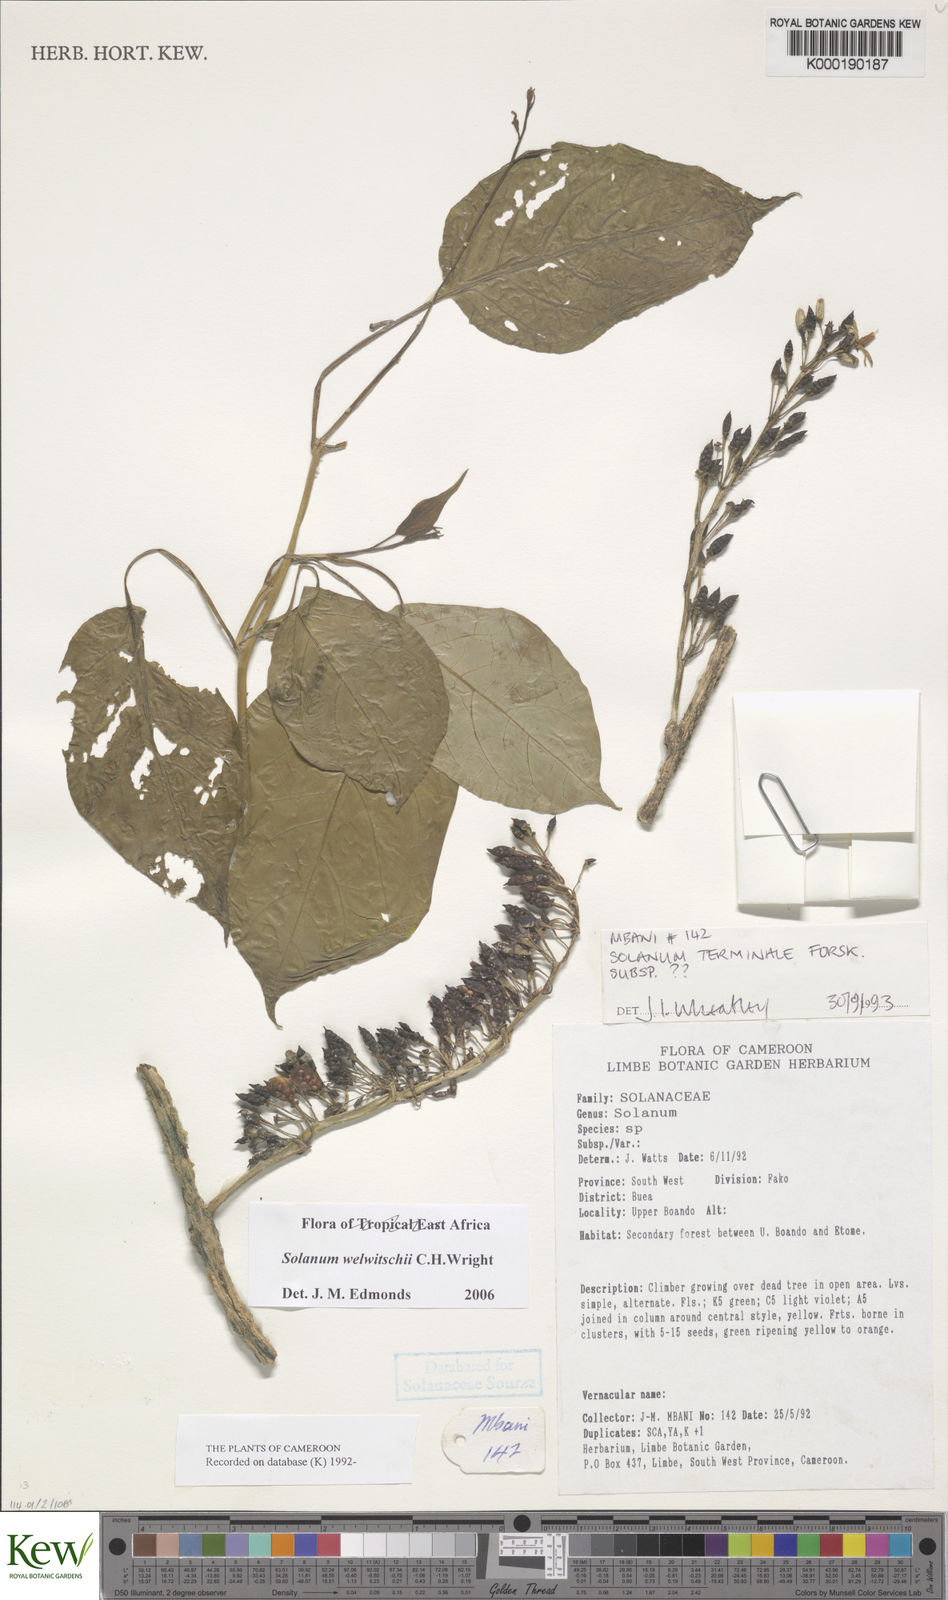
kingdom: Plantae
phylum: Tracheophyta
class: Magnoliopsida
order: Solanales
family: Solanaceae
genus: Solanum
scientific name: Solanum terminale
